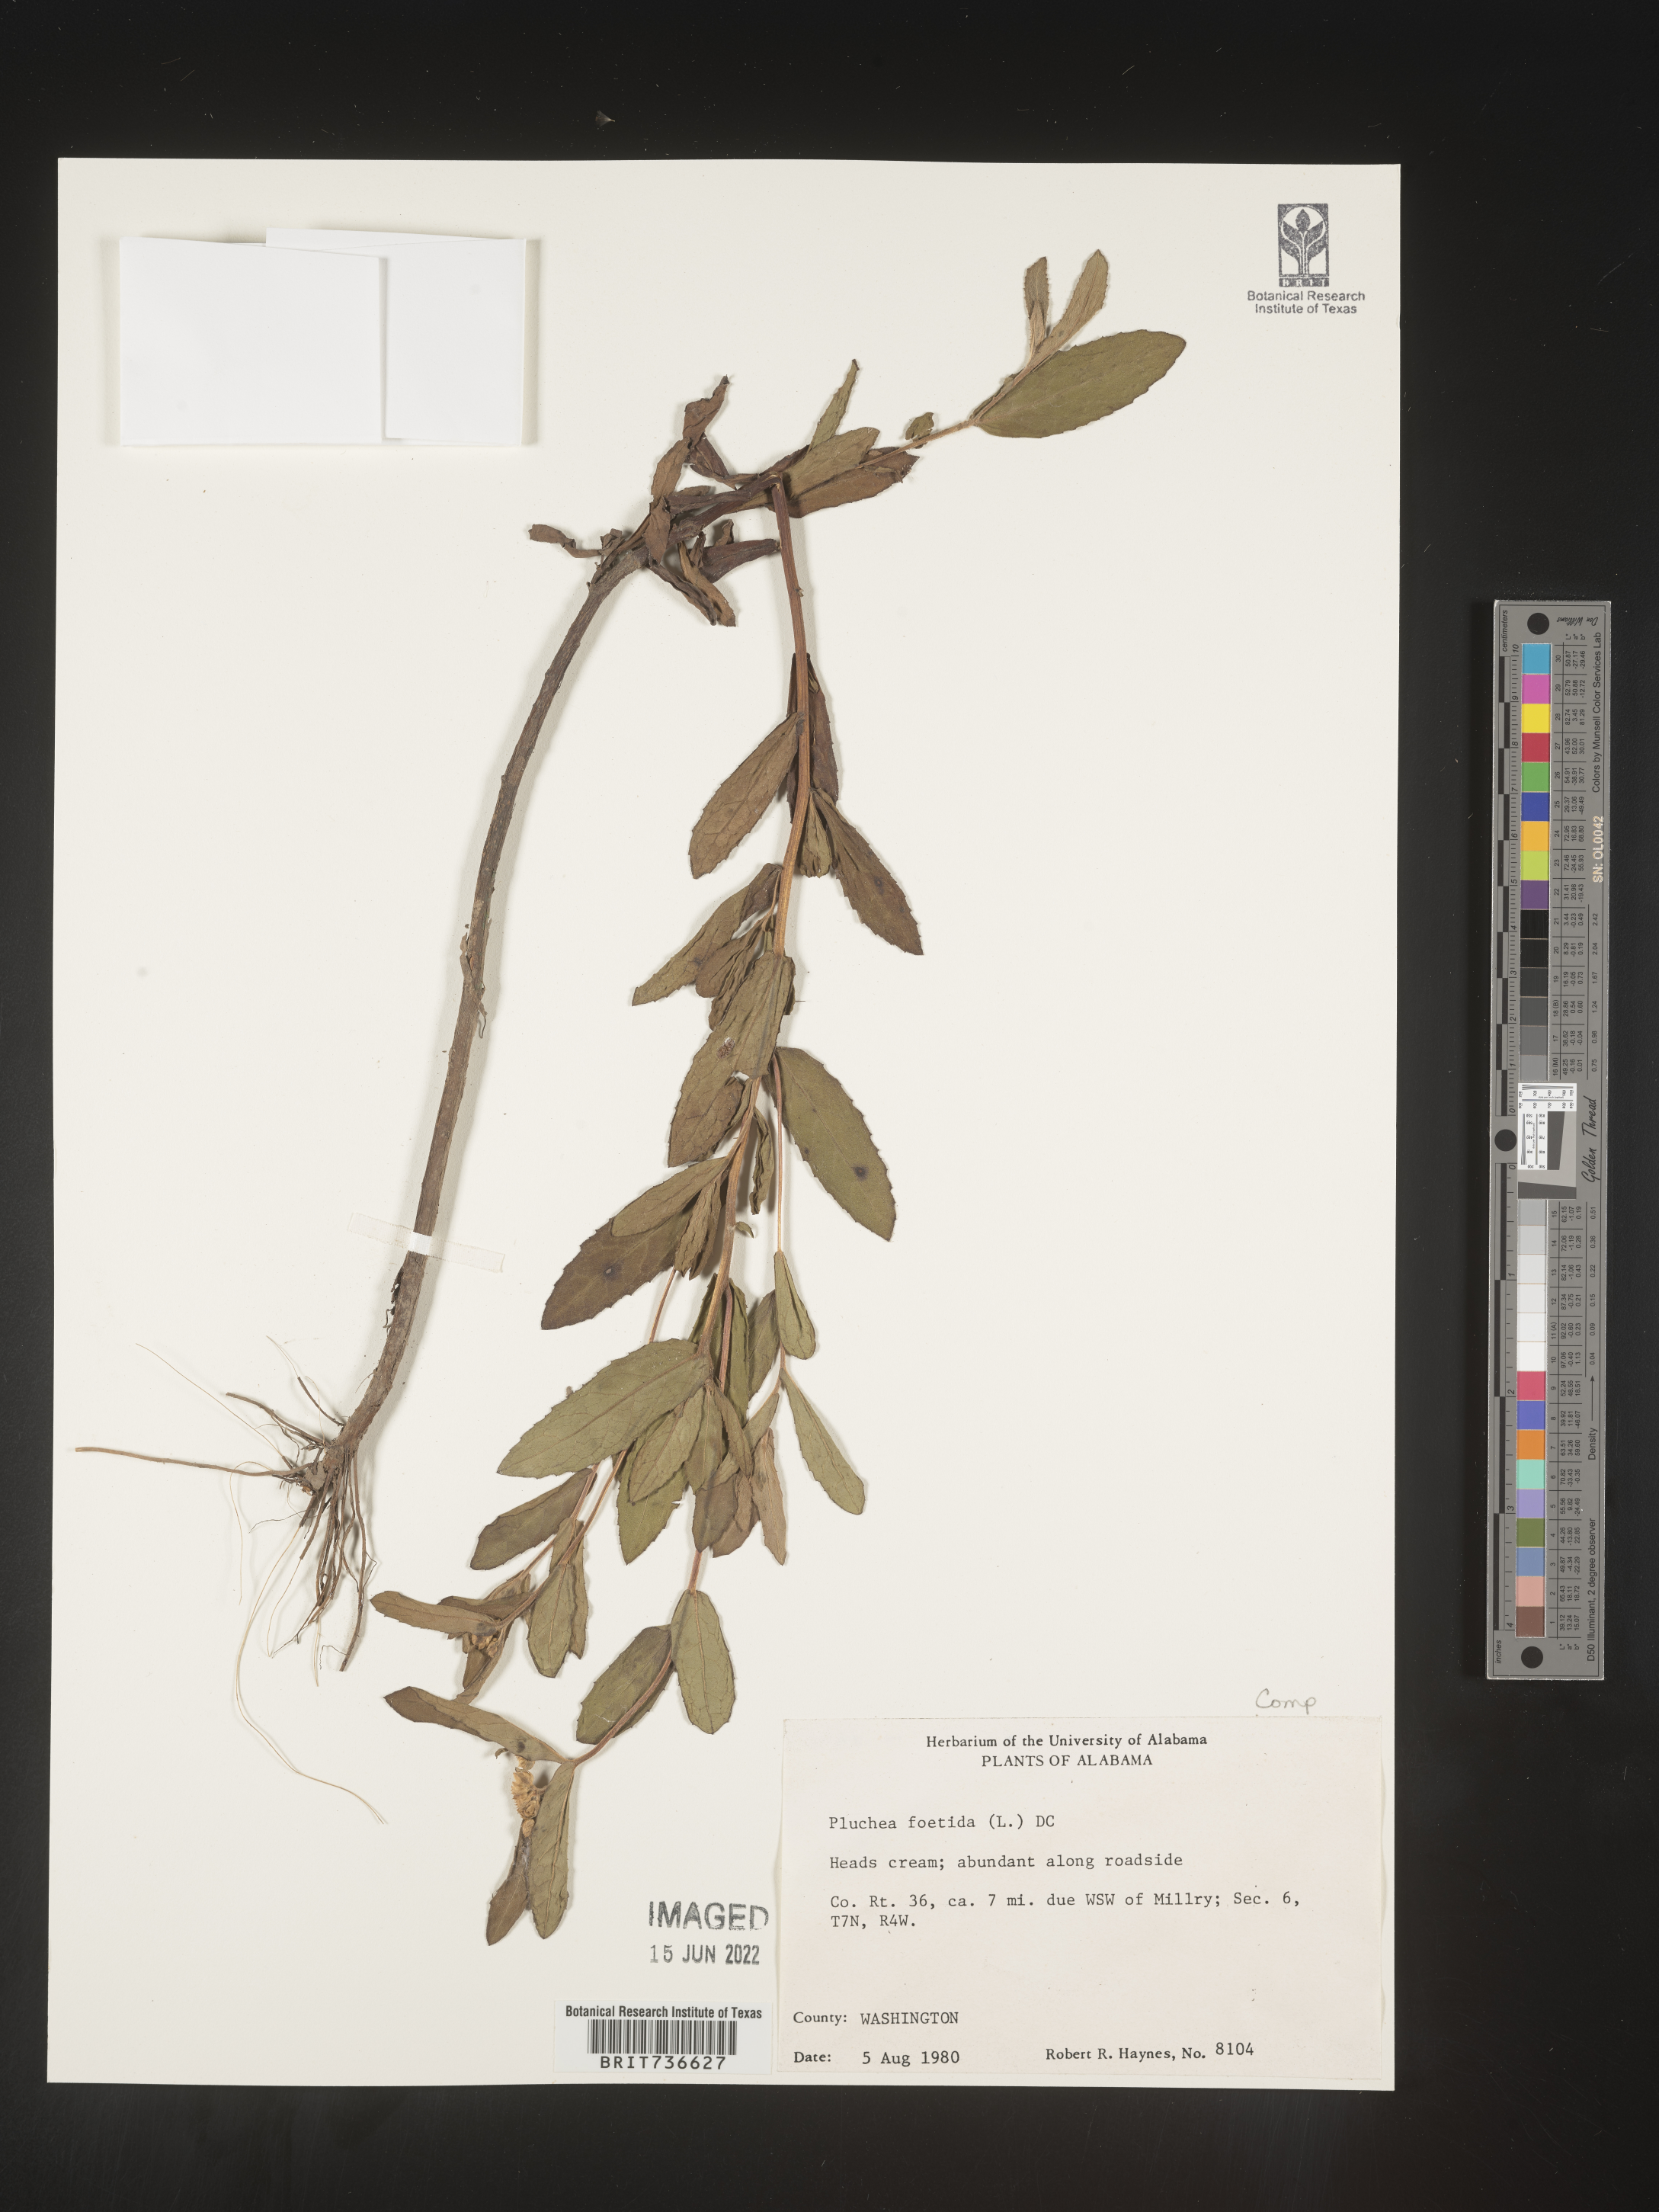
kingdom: Plantae
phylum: Tracheophyta
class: Magnoliopsida
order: Asterales
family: Asteraceae
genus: Pluchea
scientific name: Pluchea foetida
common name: Stinking camphorweed
